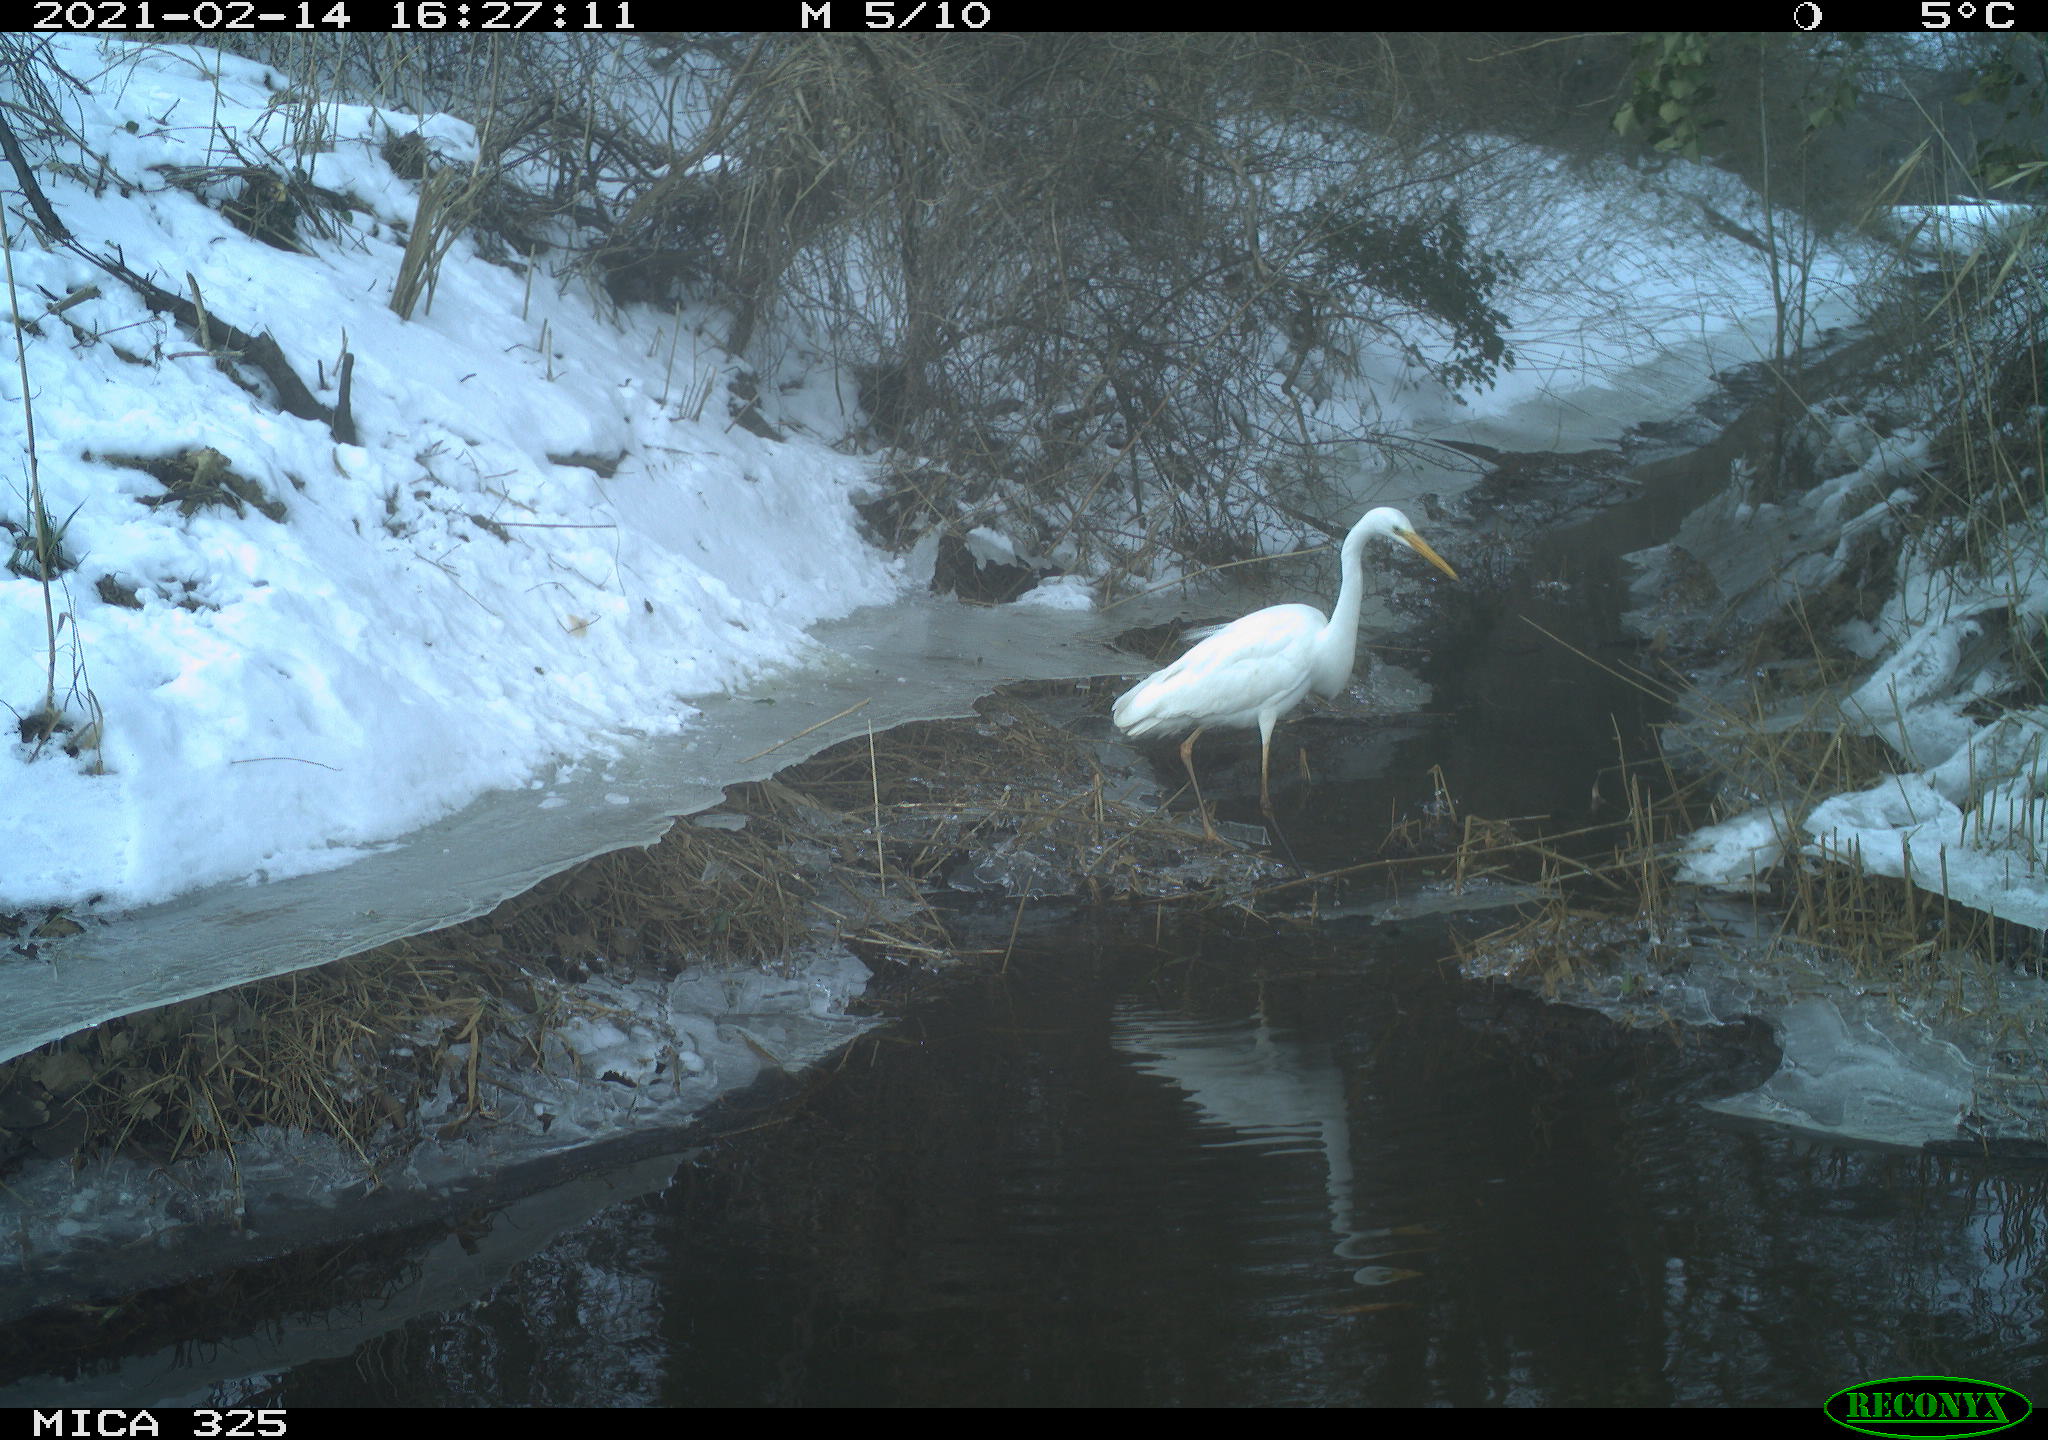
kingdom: Animalia
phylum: Chordata
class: Aves
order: Pelecaniformes
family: Ardeidae
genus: Ardea
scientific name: Ardea alba
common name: Great egret
